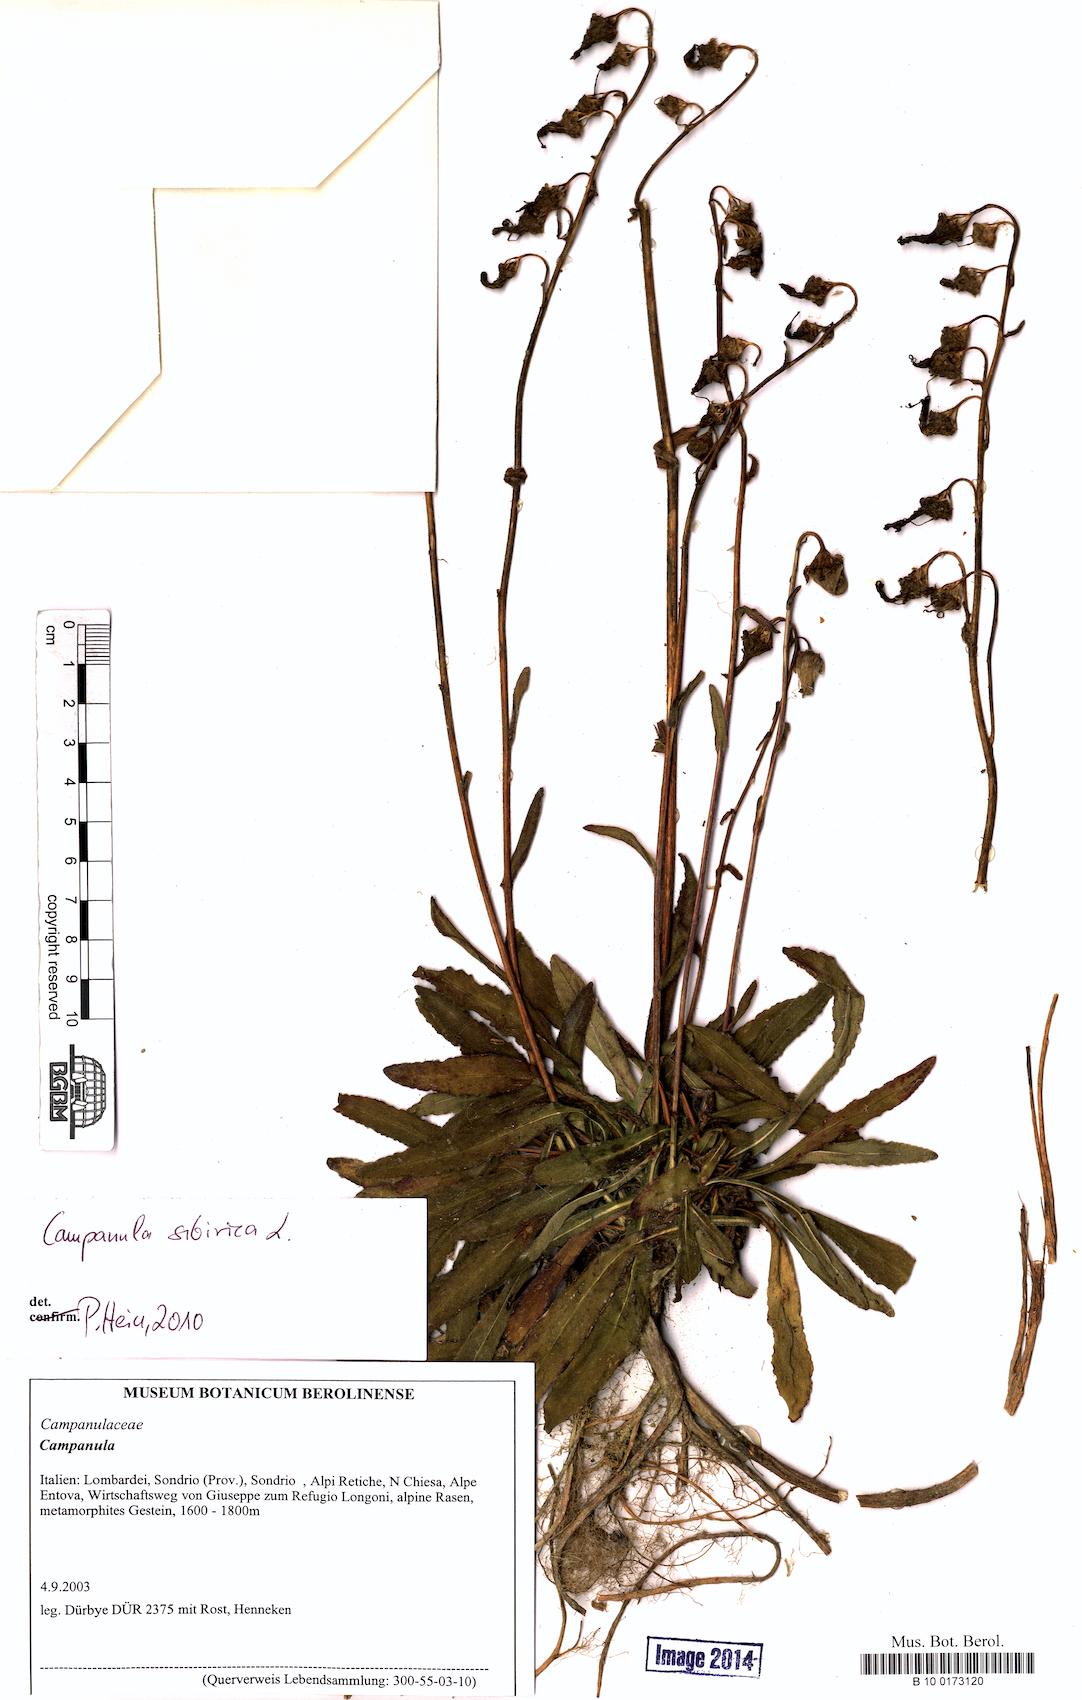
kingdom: Plantae
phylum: Tracheophyta
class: Magnoliopsida
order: Asterales
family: Campanulaceae
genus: Campanula
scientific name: Campanula sibirica
